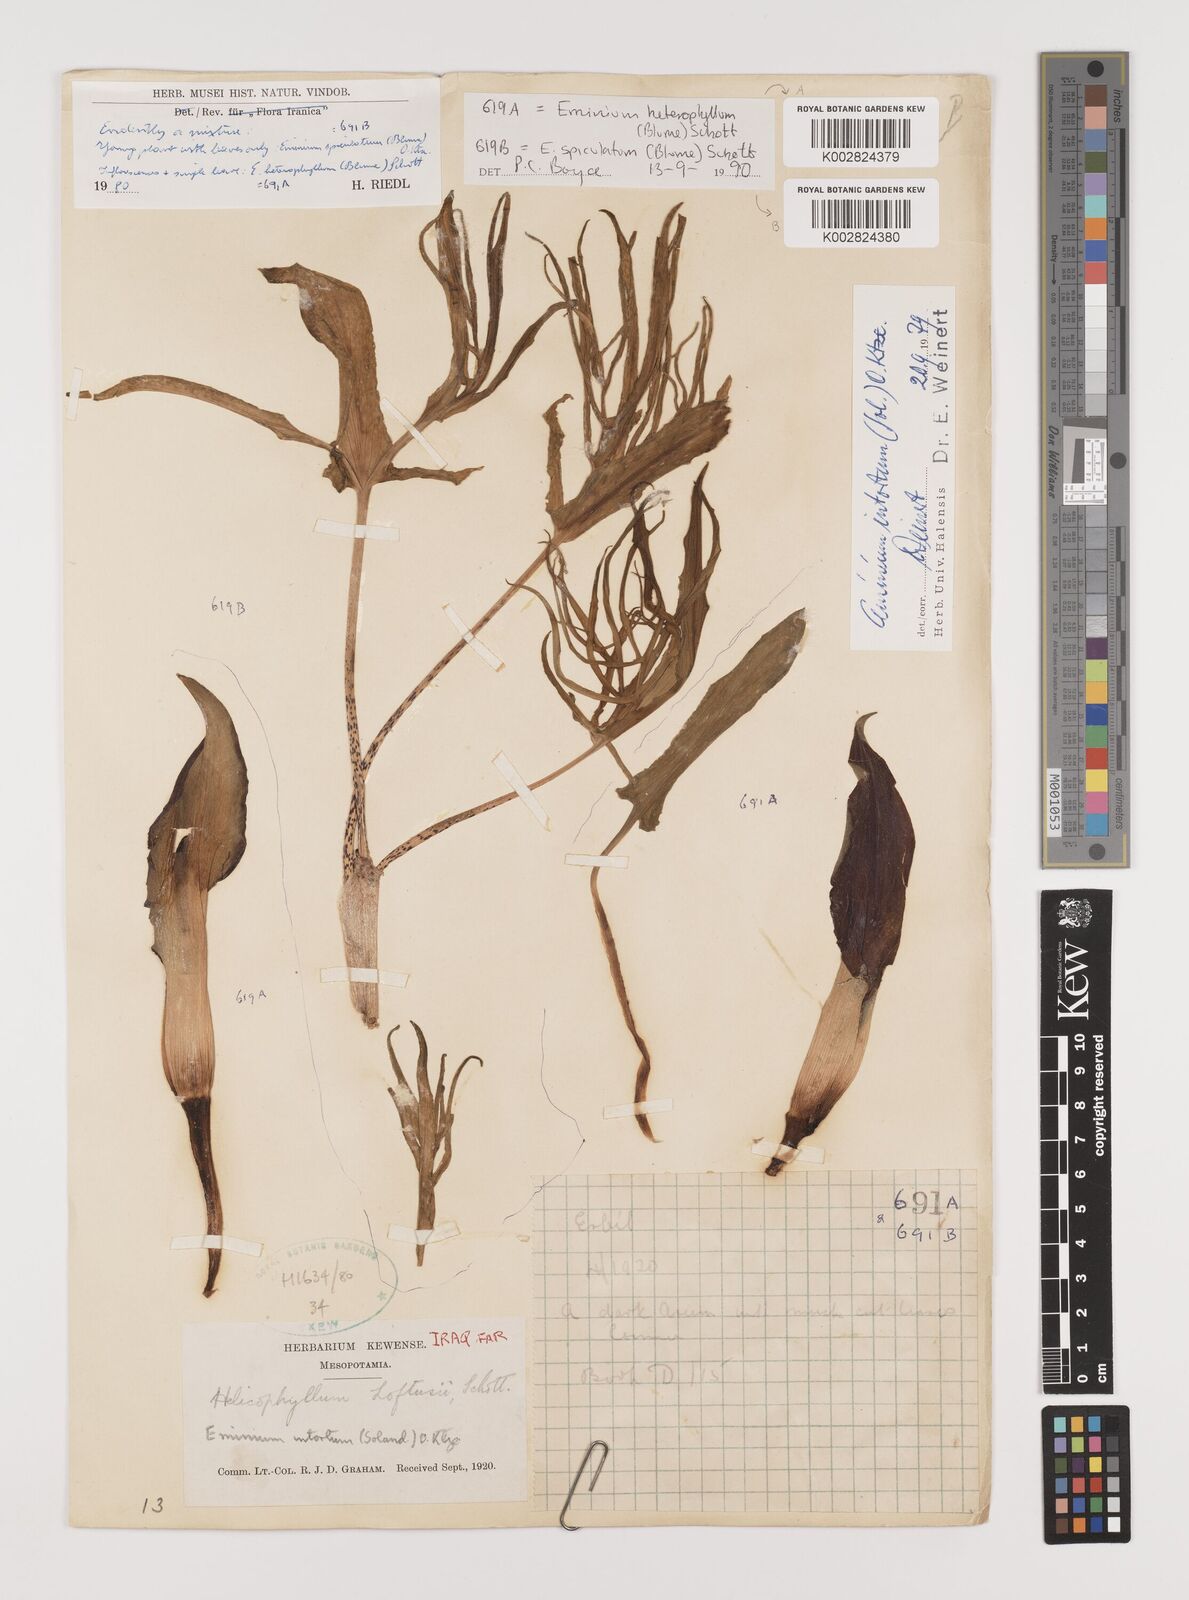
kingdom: Plantae
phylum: Tracheophyta
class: Liliopsida
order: Alismatales
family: Araceae
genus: Eminium
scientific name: Eminium rauwolffii
